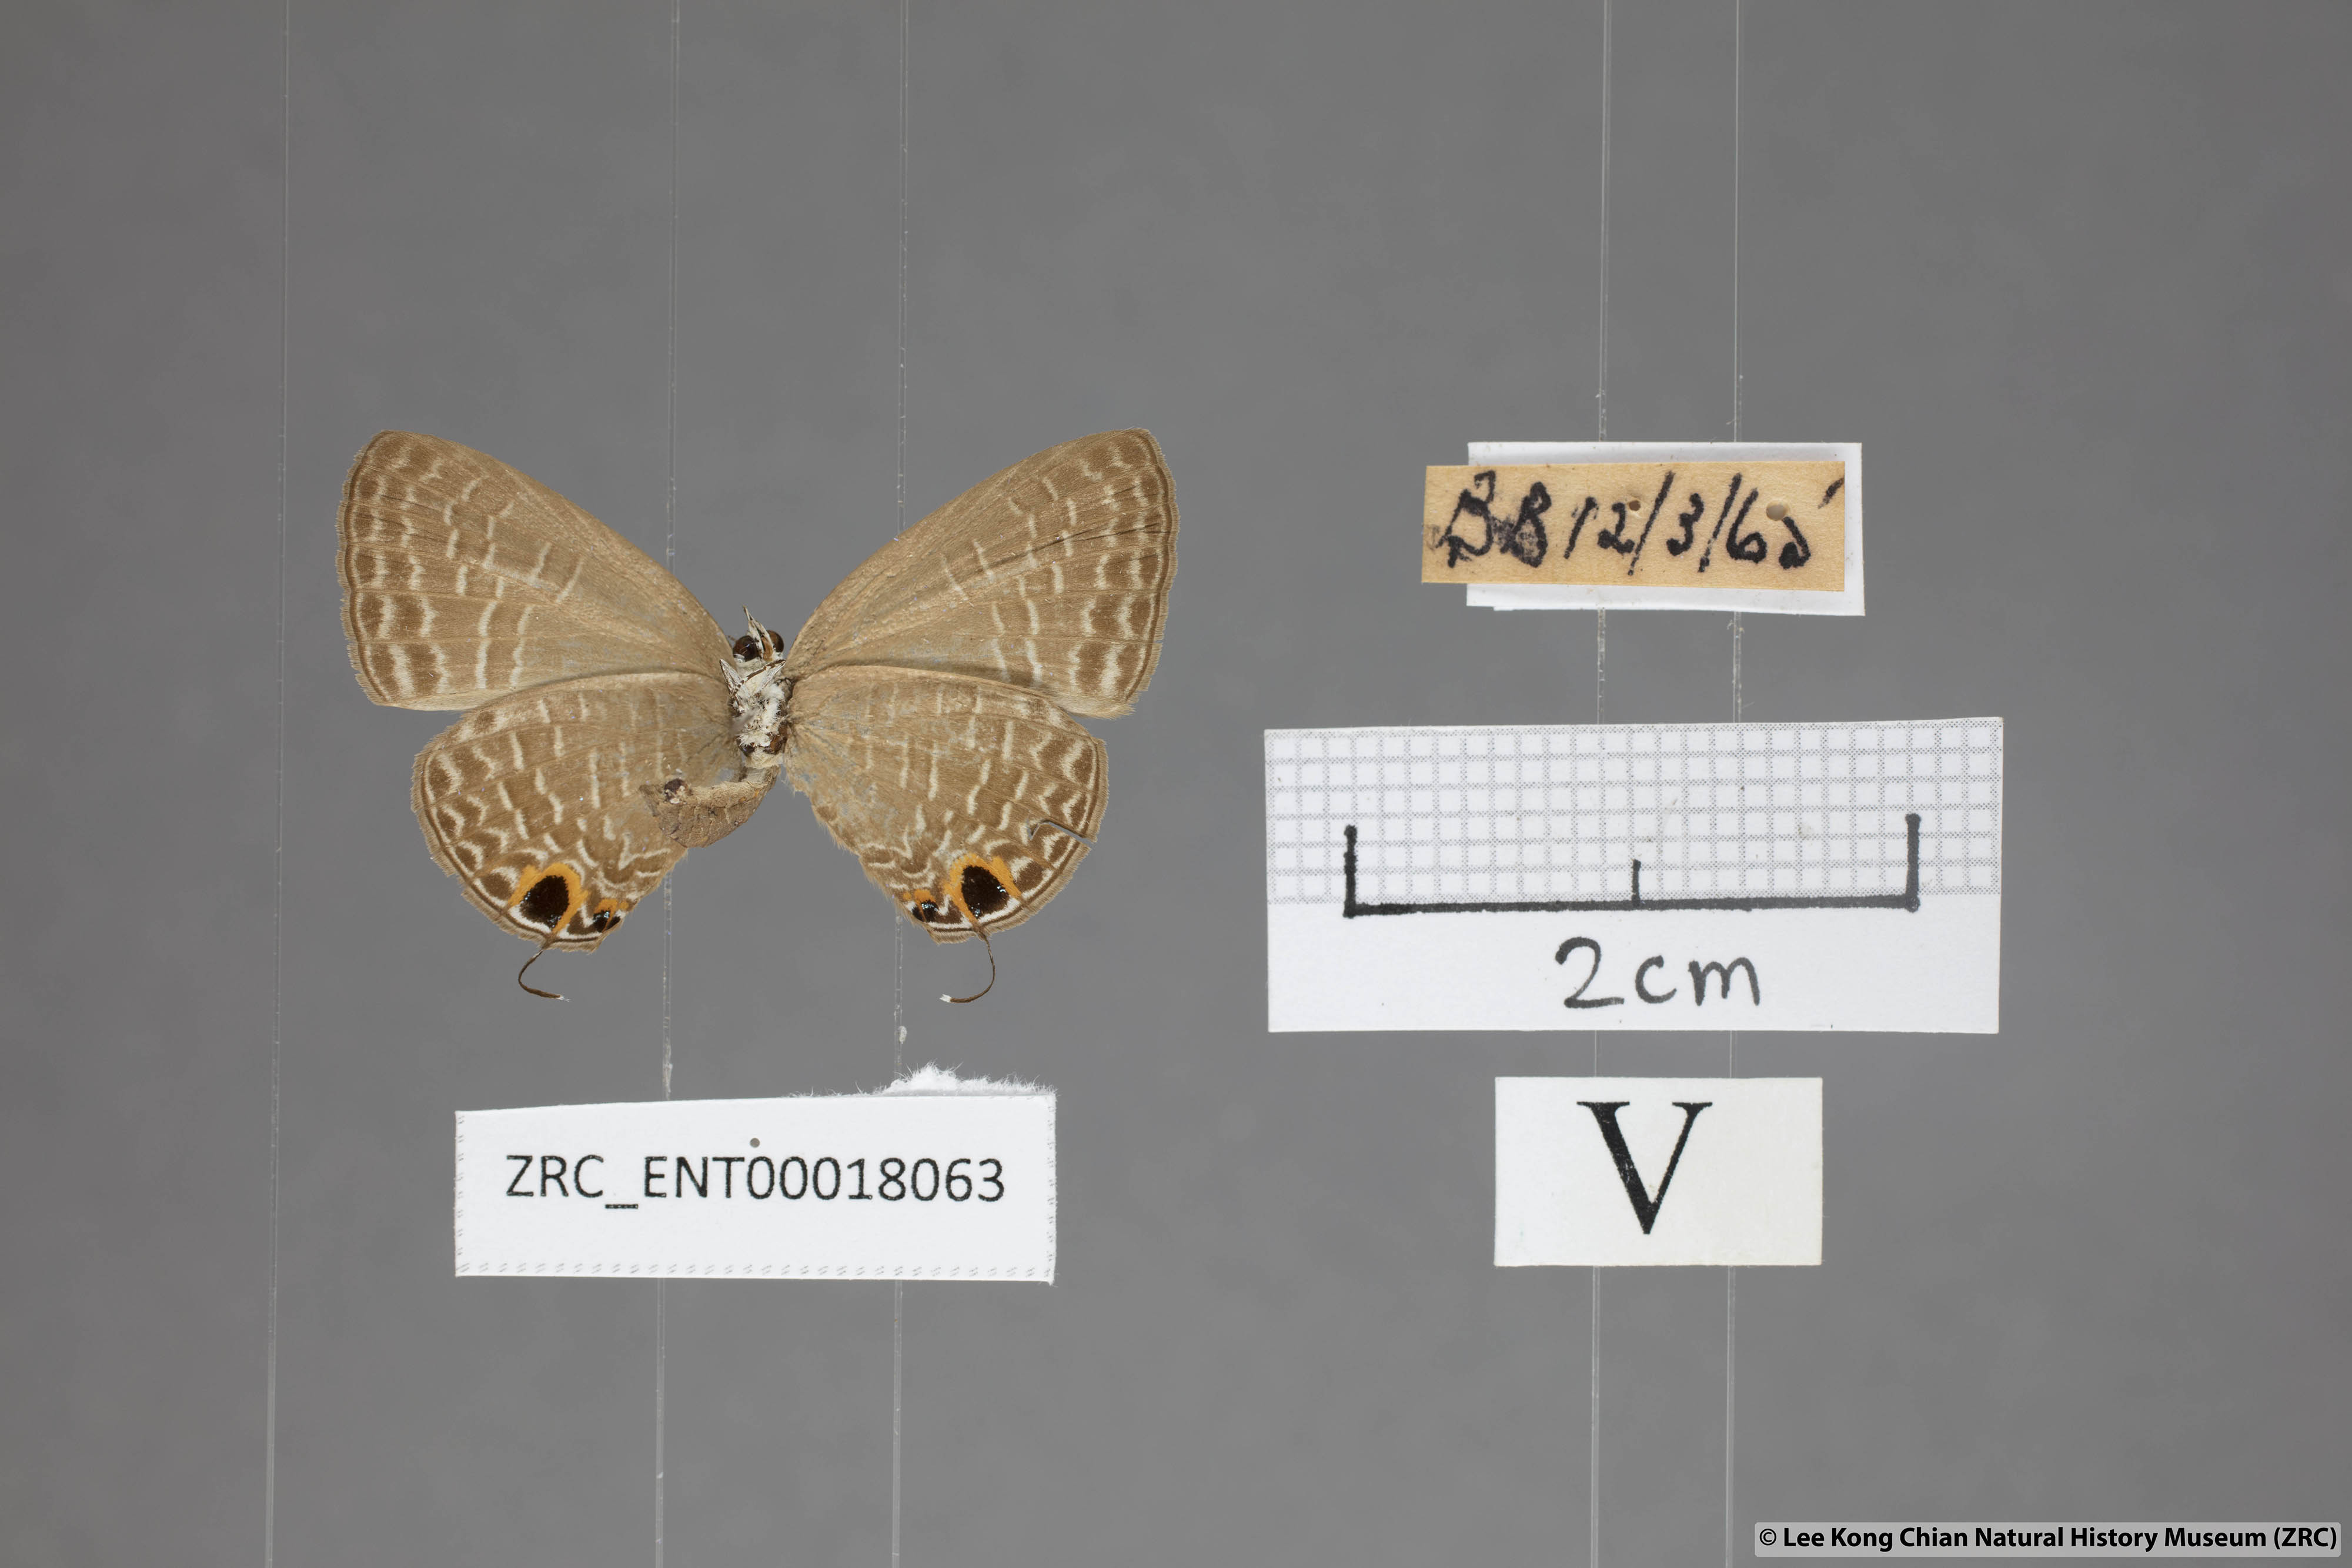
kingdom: Animalia
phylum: Arthropoda
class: Insecta
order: Lepidoptera
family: Lycaenidae
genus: Jamides
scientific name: Jamides bochus
